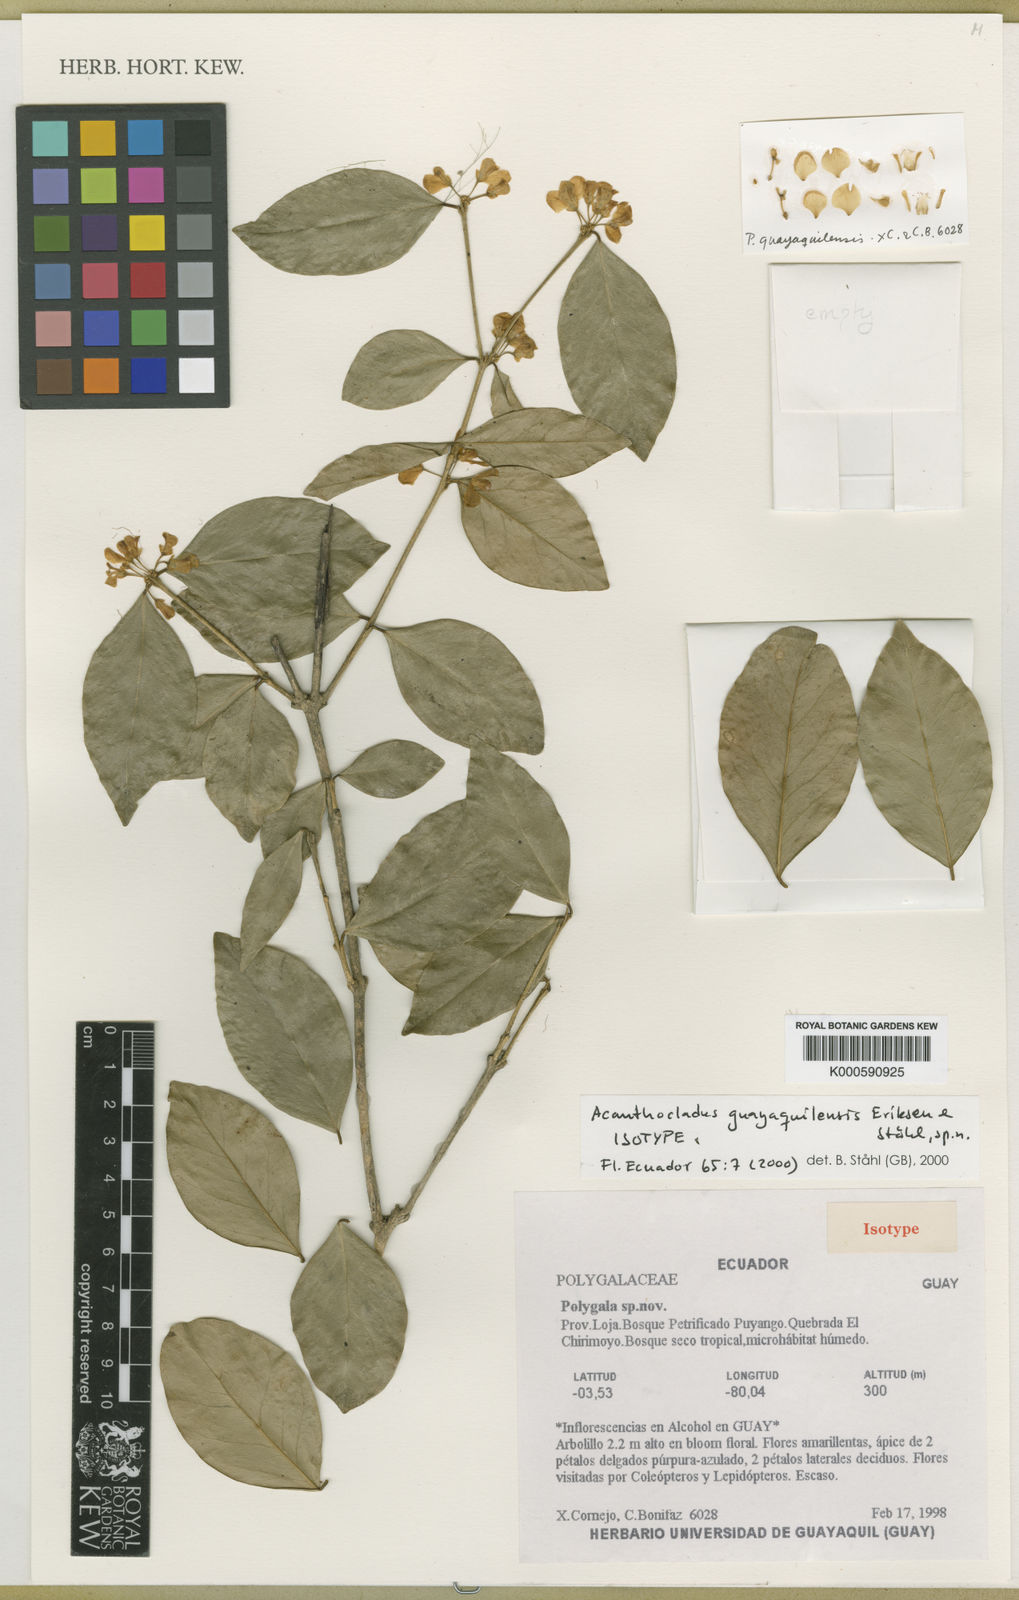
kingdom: Plantae
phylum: Tracheophyta
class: Magnoliopsida
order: Fabales
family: Polygalaceae
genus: Polygala
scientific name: Polygala
